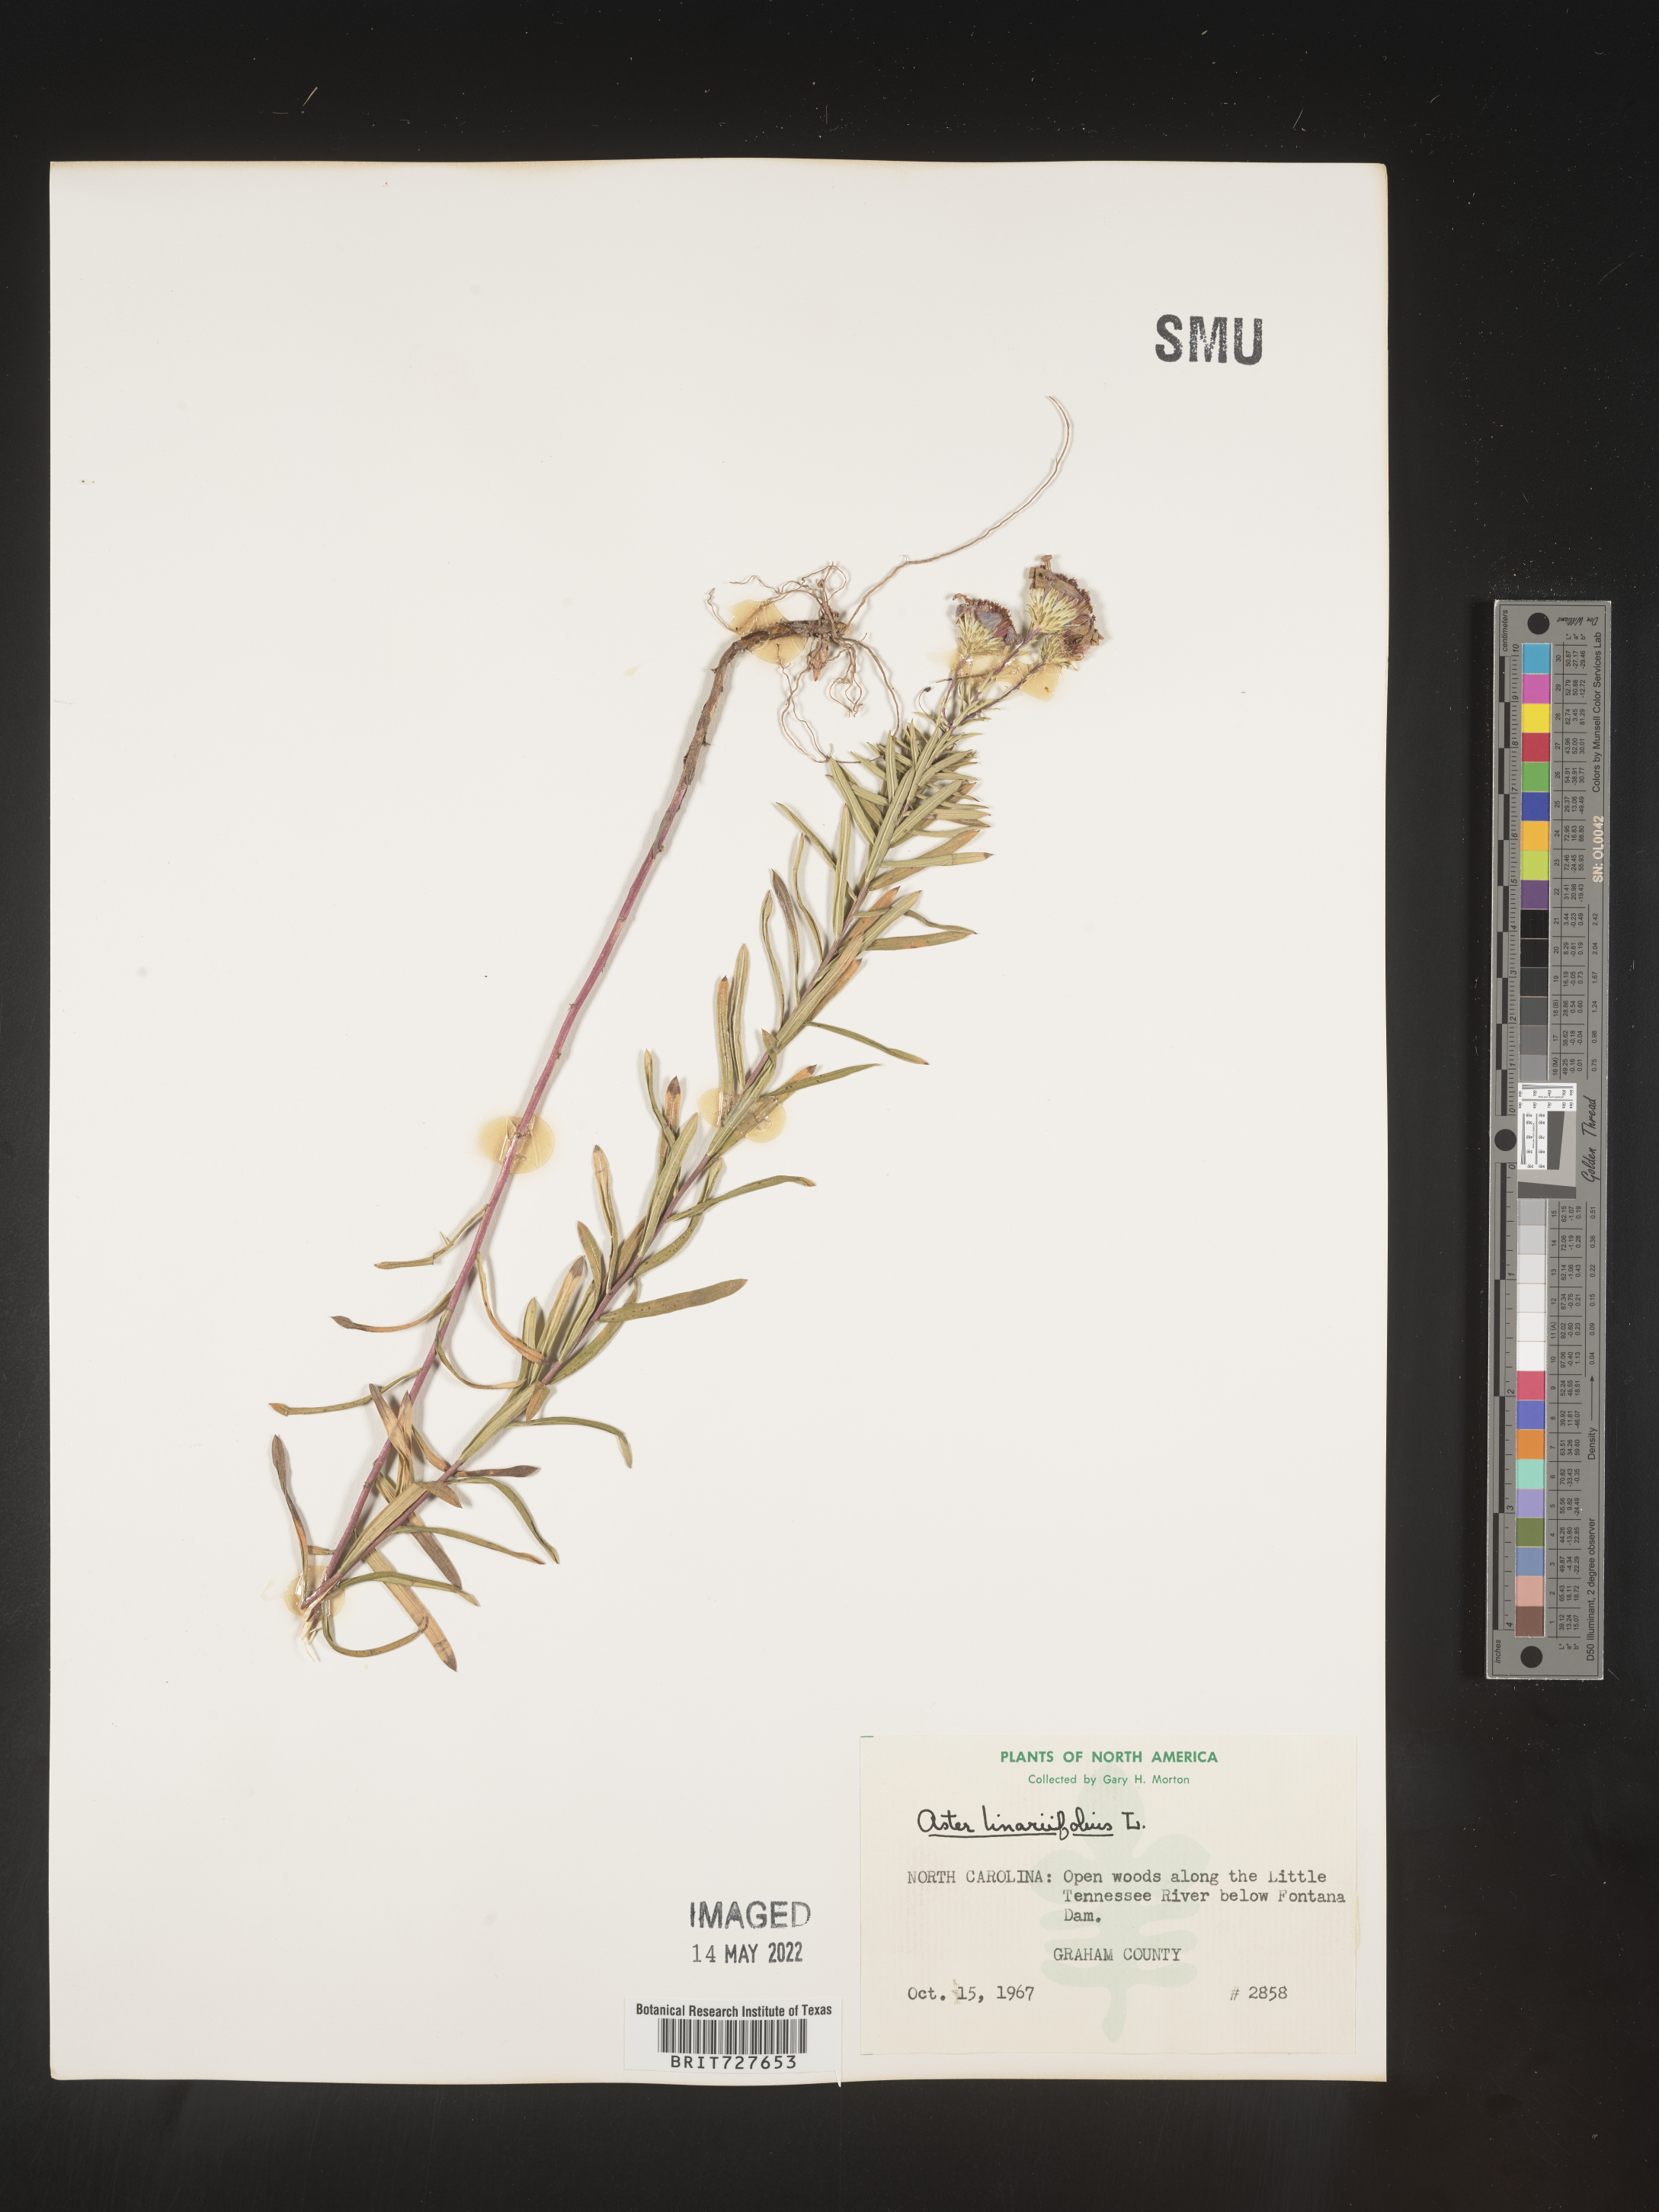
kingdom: Plantae
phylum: Tracheophyta
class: Magnoliopsida
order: Asterales
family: Asteraceae
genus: Ionactis
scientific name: Ionactis linariifolia
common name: Flax-leaf aster
